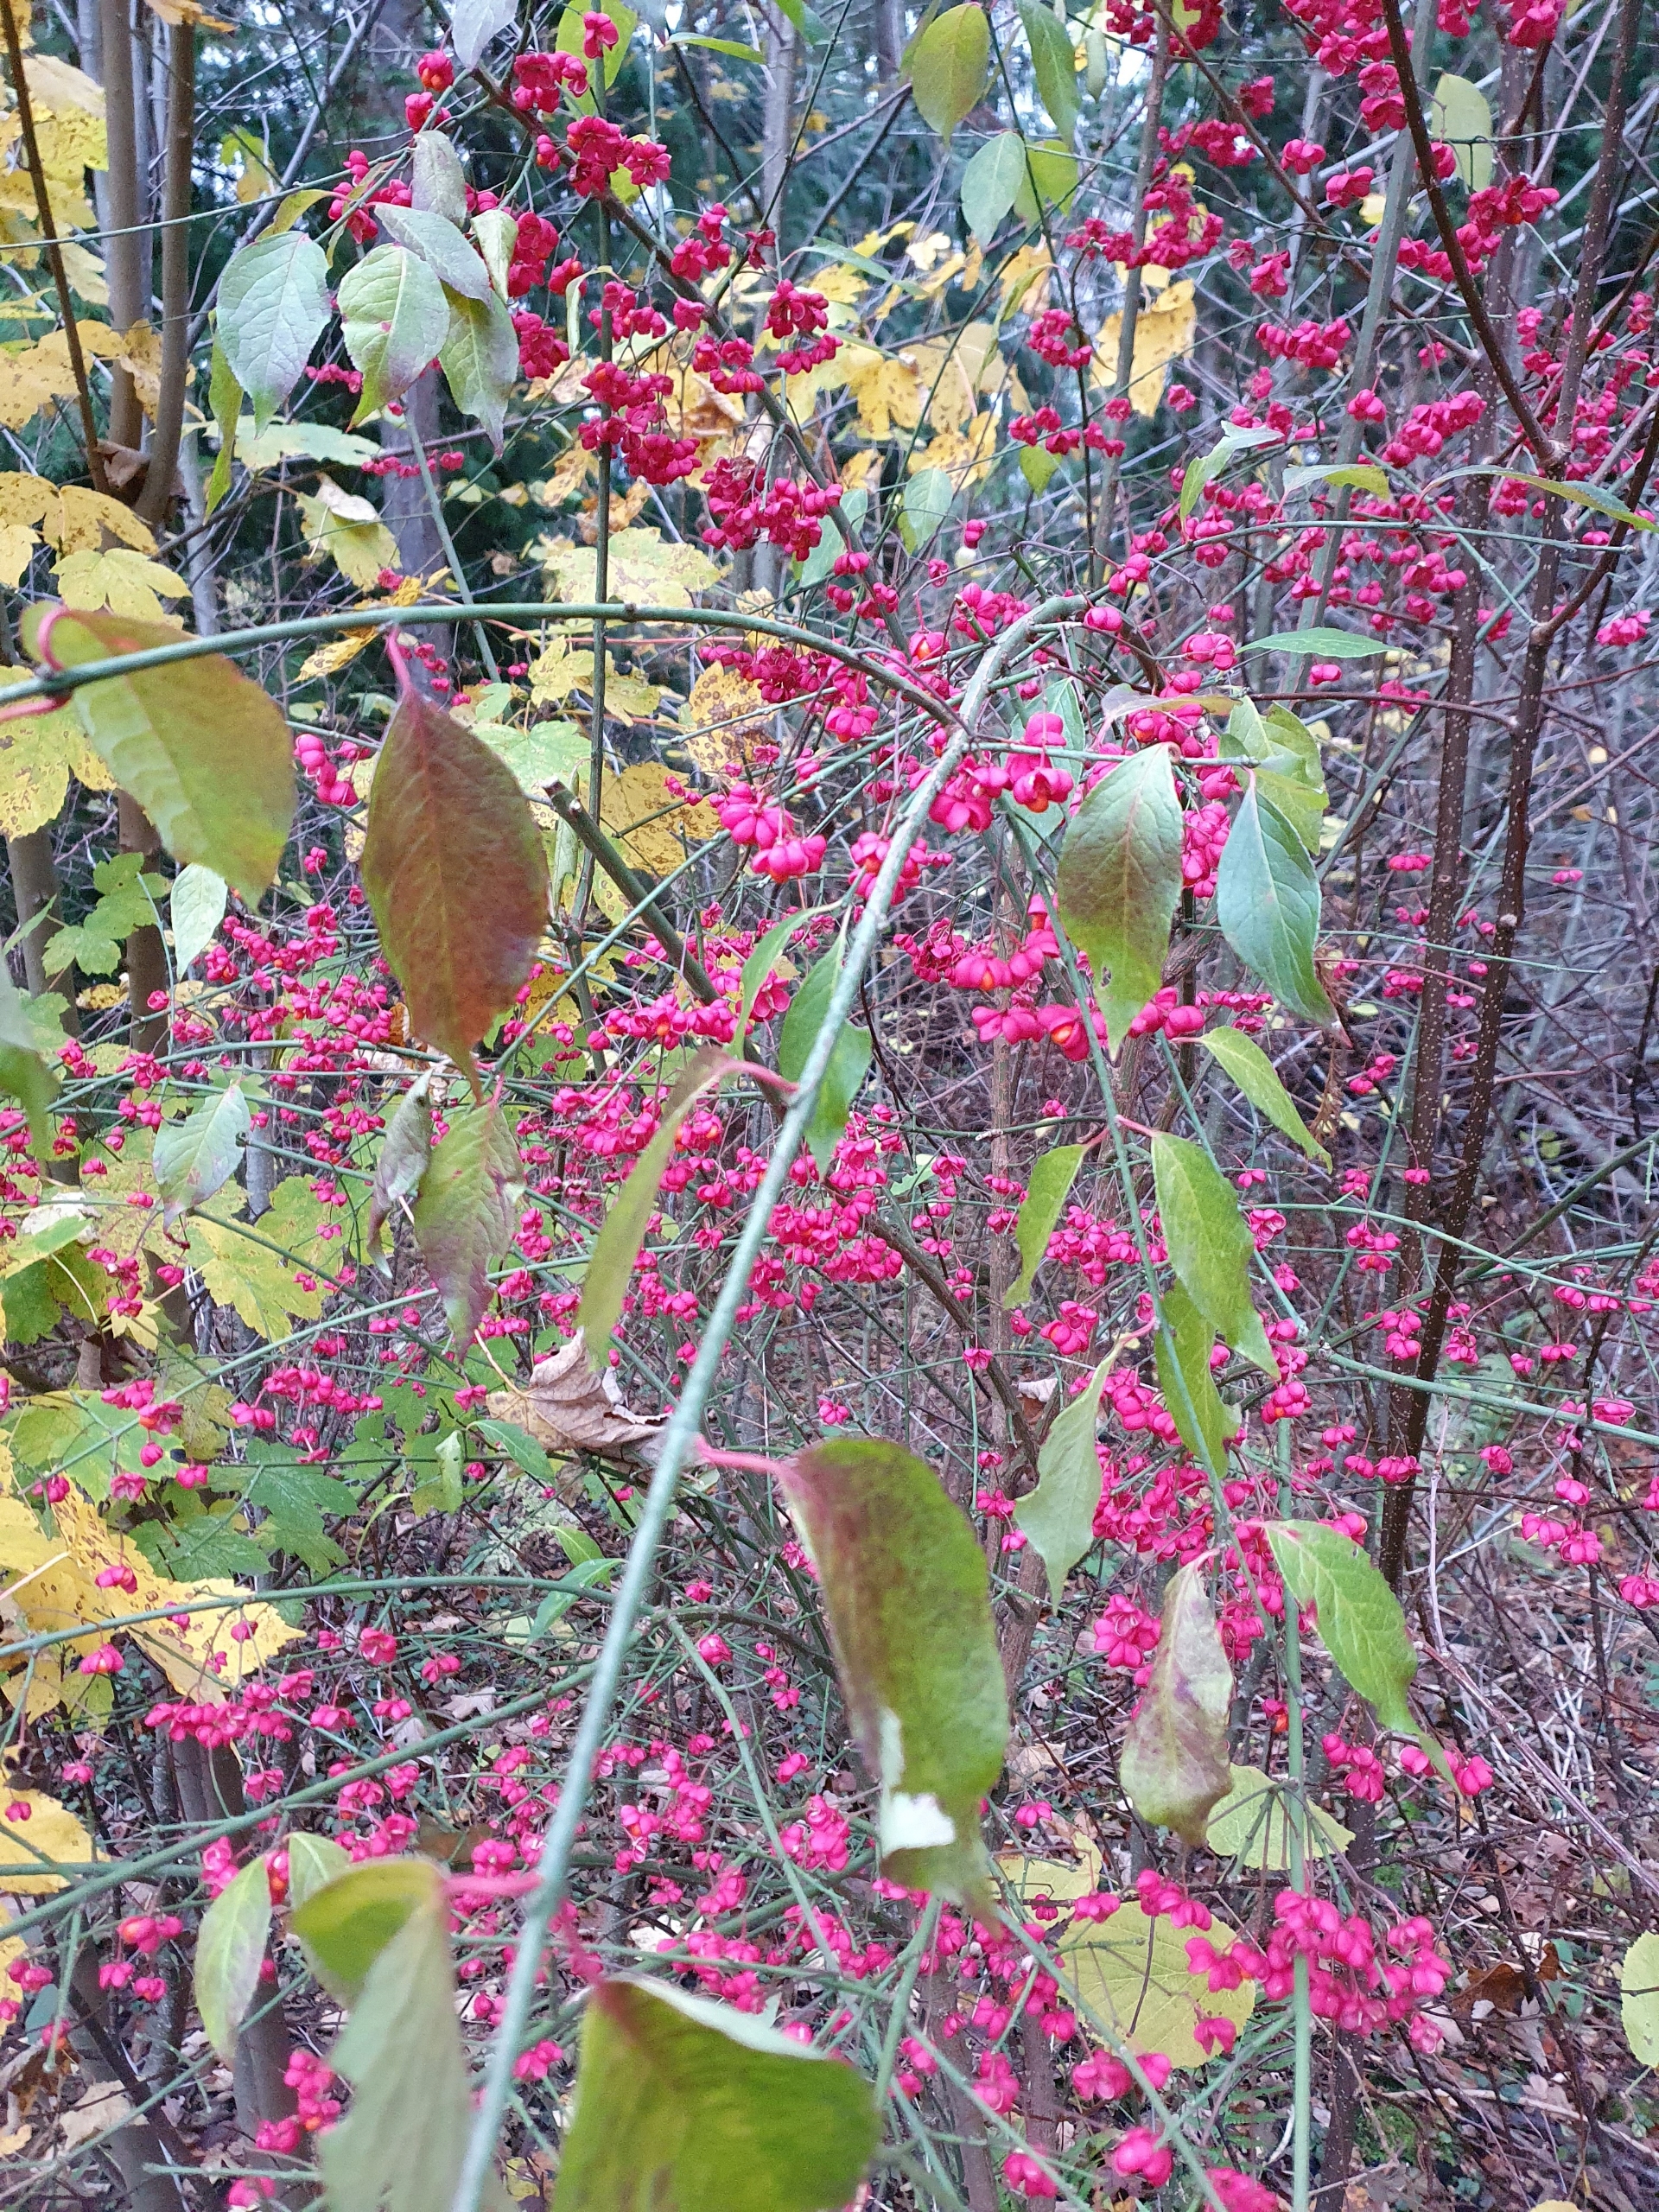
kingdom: Plantae
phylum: Tracheophyta
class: Magnoliopsida
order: Celastrales
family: Celastraceae
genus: Euonymus
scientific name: Euonymus europaeus
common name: Benved
